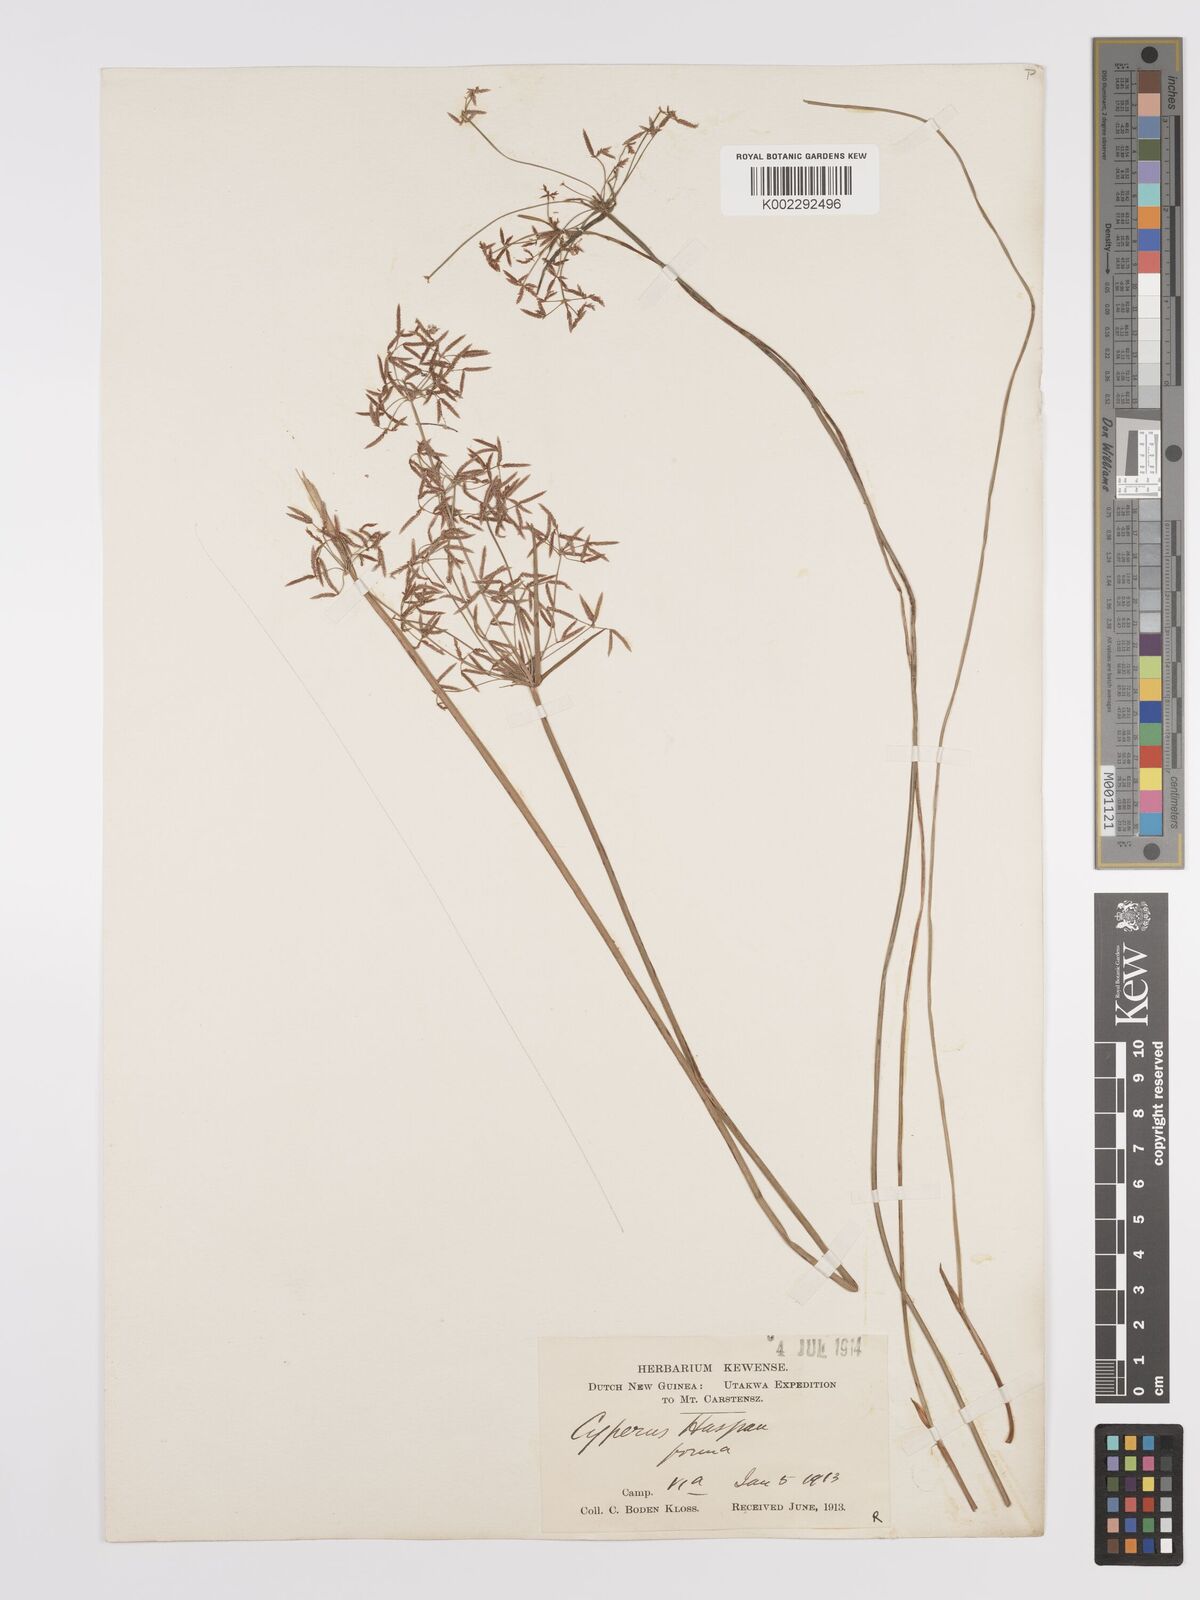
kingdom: Plantae
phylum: Tracheophyta
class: Liliopsida
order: Poales
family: Cyperaceae
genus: Cyperus
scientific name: Cyperus haspan
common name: Haspan flatsedge
